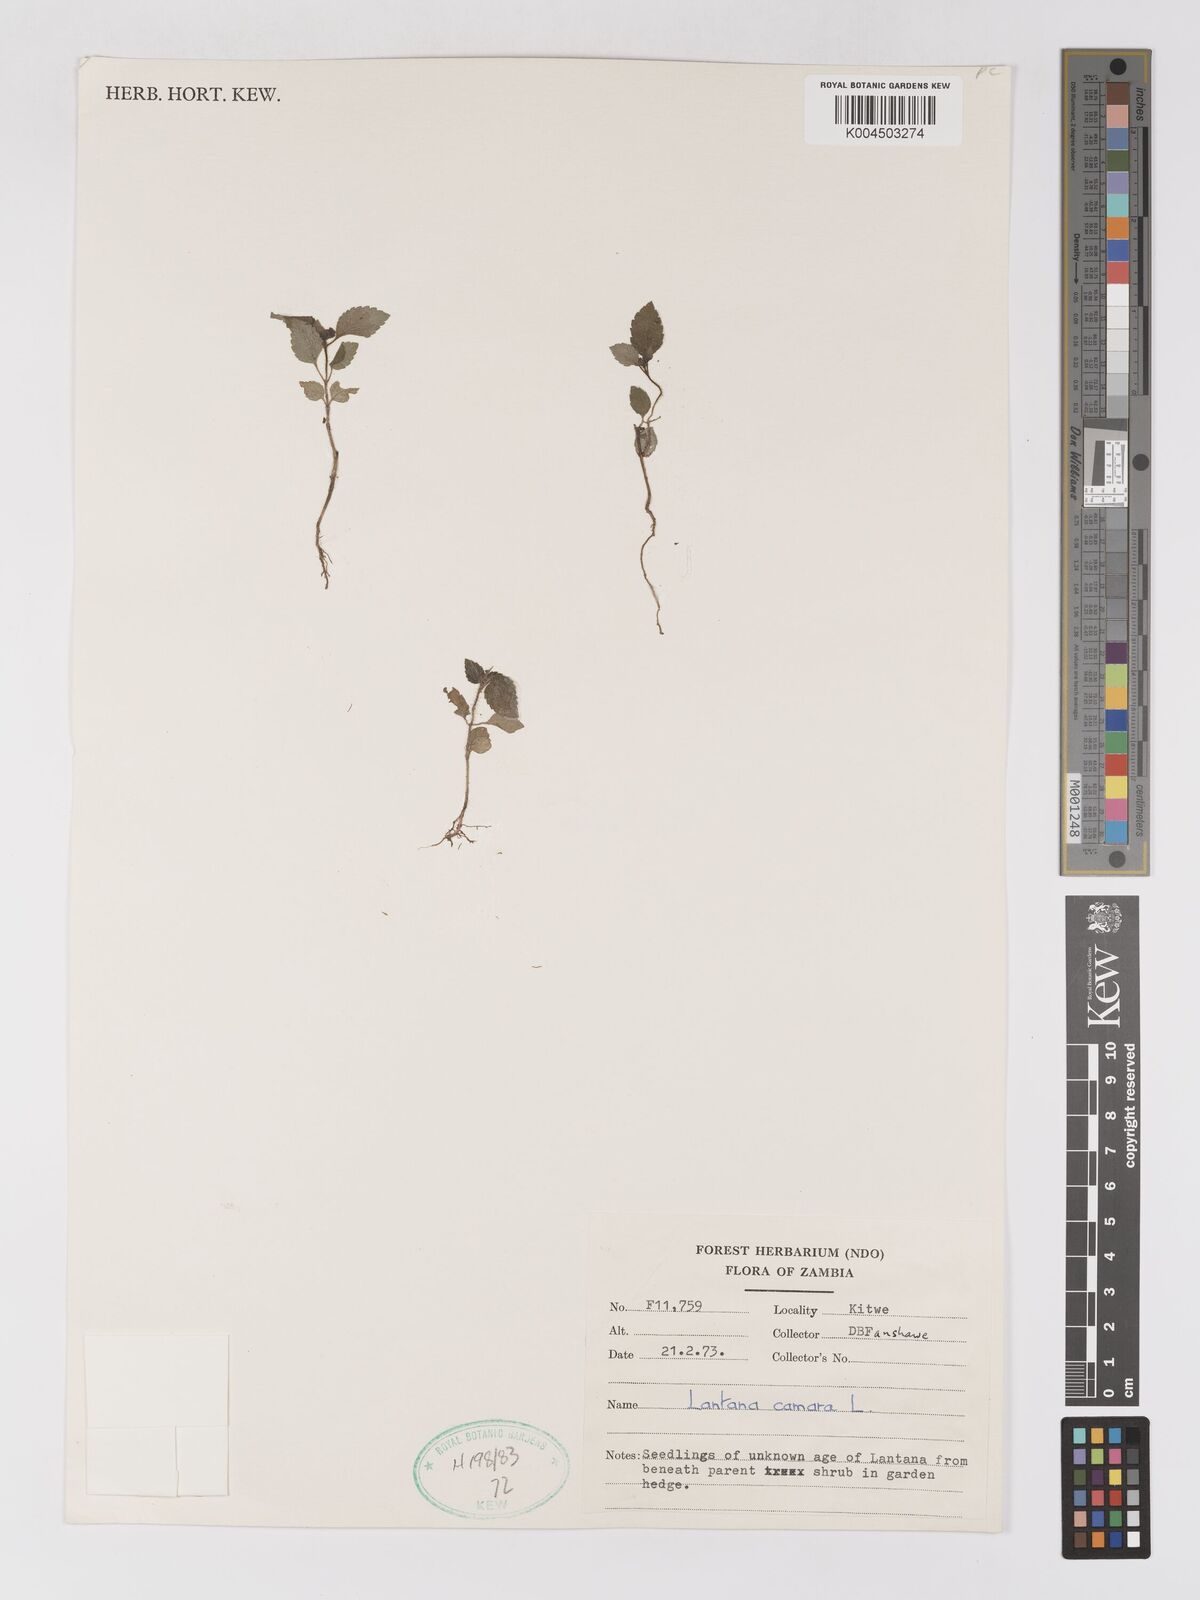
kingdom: Plantae
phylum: Tracheophyta
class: Magnoliopsida
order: Lamiales
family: Verbenaceae
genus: Lantana
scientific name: Lantana camara
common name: Lantana
